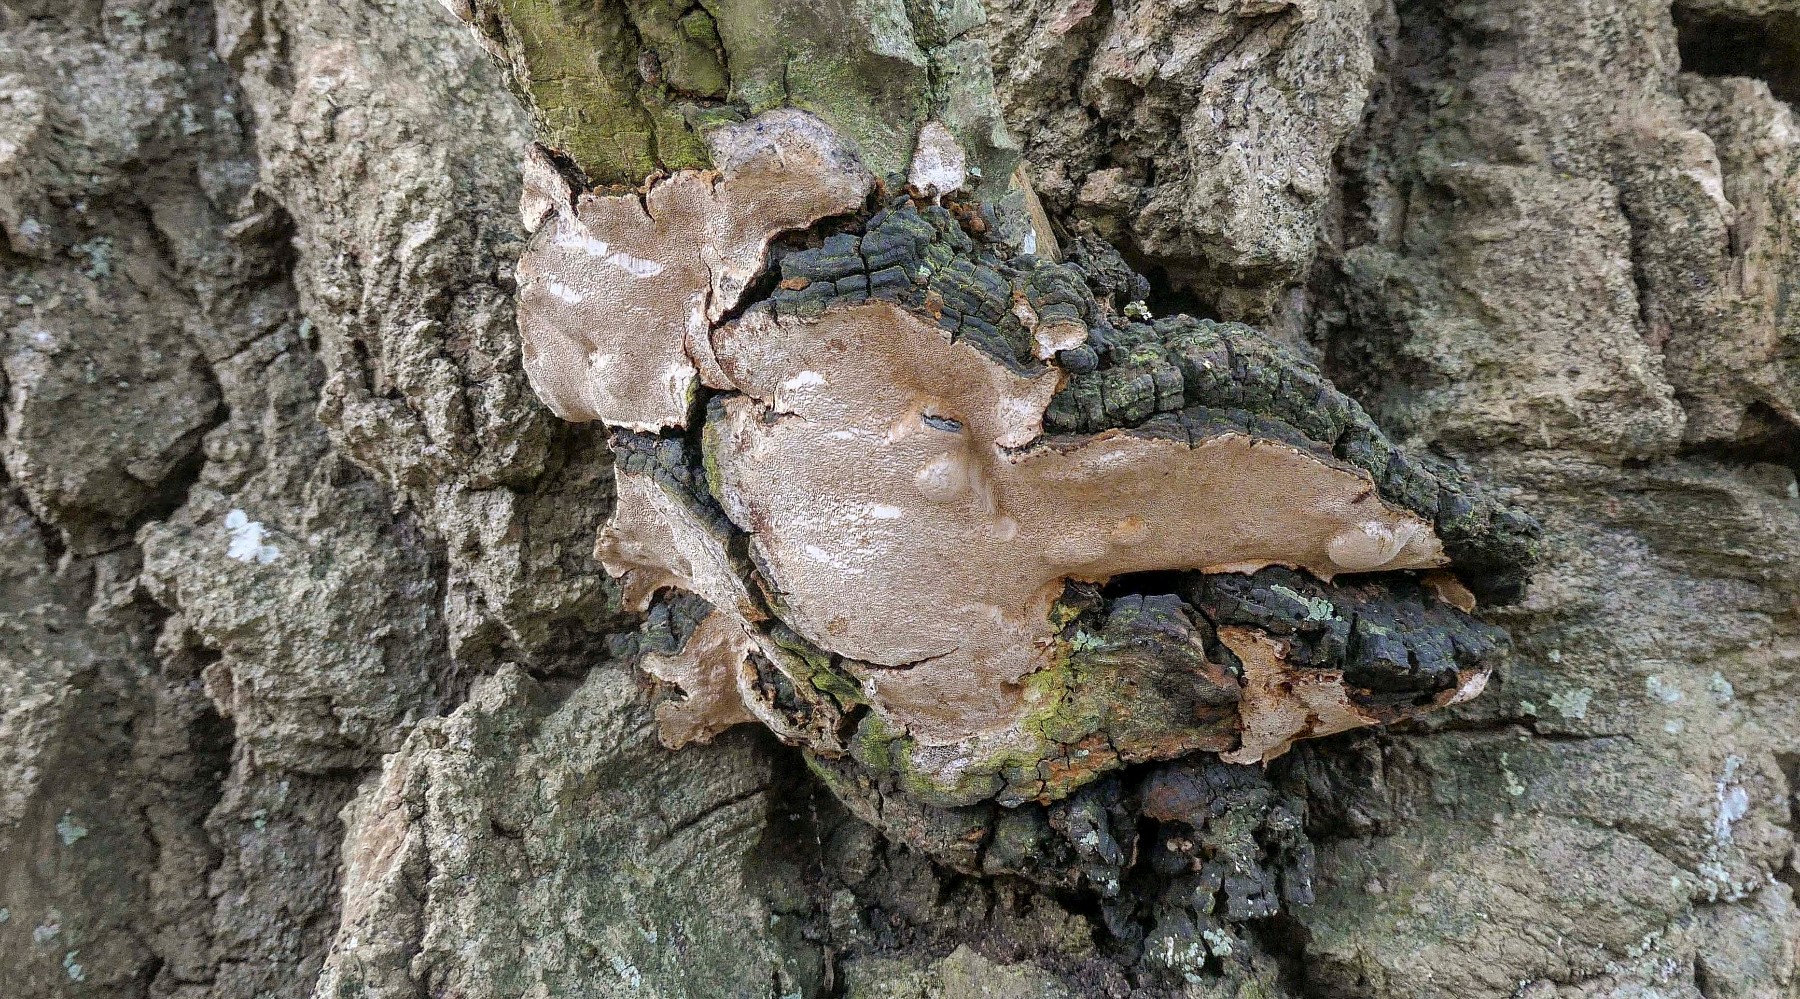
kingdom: Fungi
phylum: Basidiomycota
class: Agaricomycetes
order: Hymenochaetales
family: Hymenochaetaceae
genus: Phellinus
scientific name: Phellinus tremulae
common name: aspe-ildporesvamp
